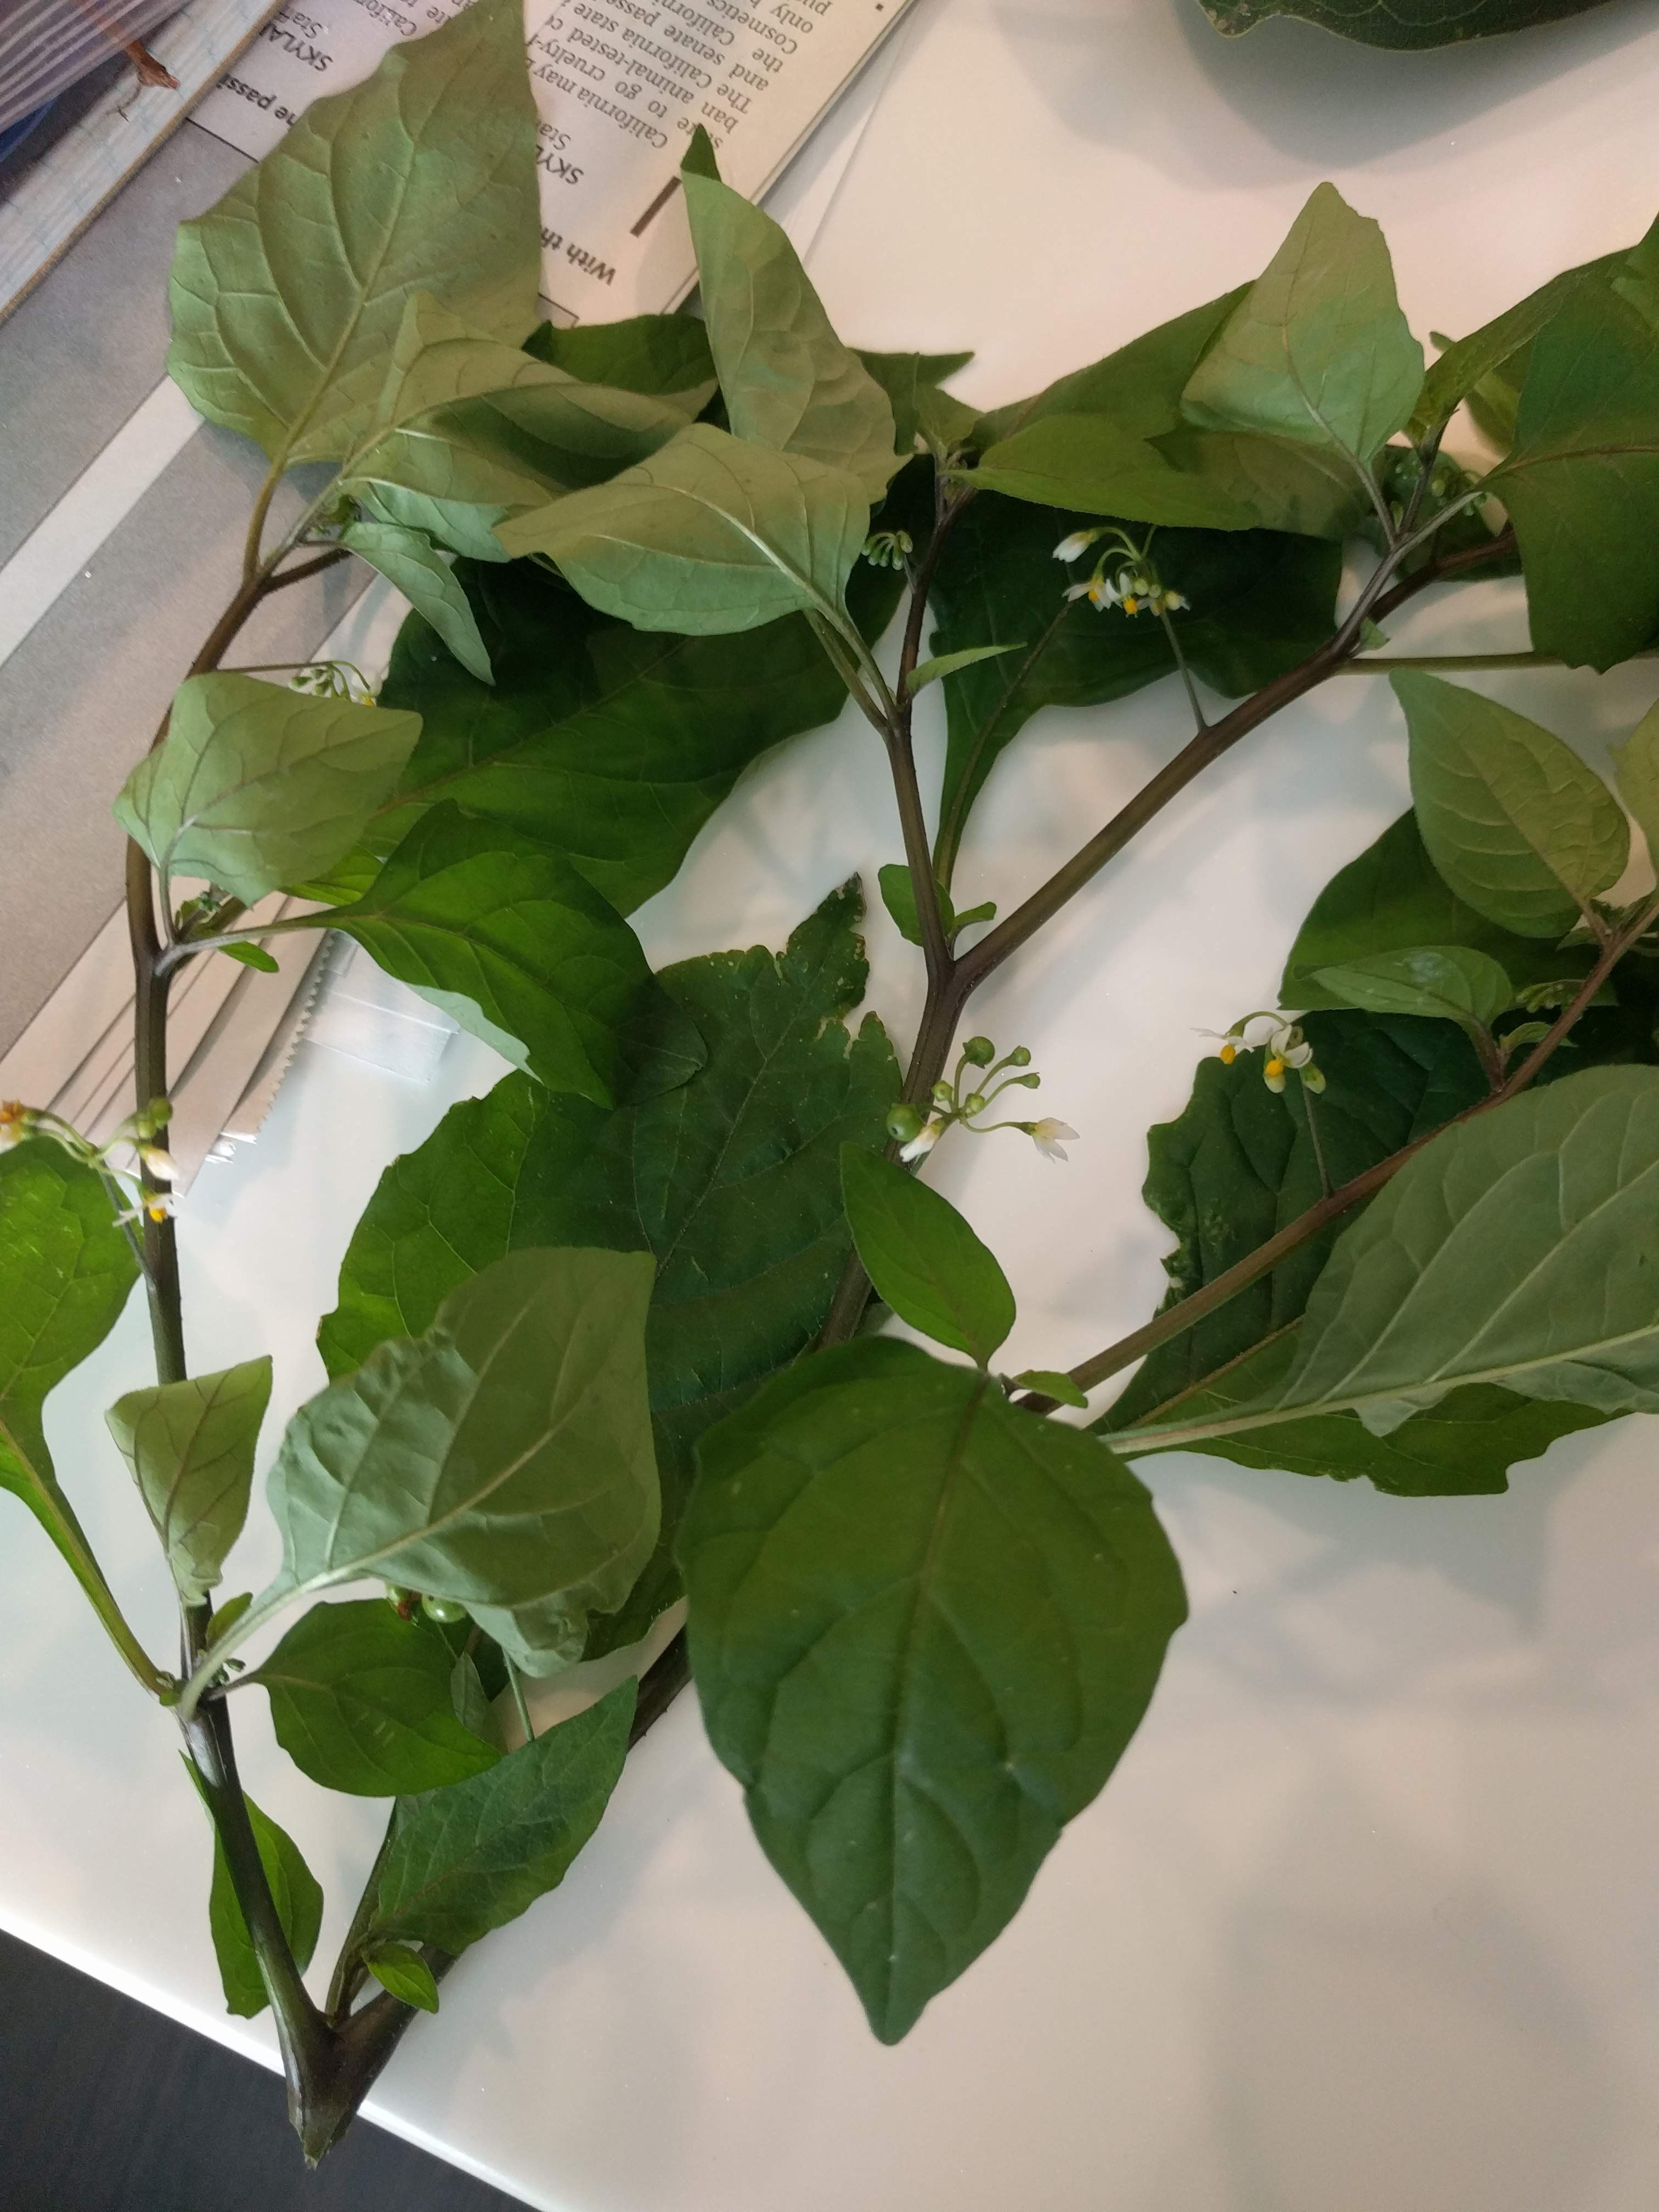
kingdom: Plantae
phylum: Tracheophyta
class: Magnoliopsida
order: Solanales
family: Solanaceae
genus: Solanum
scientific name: Solanum americanum
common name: Black nightshade
